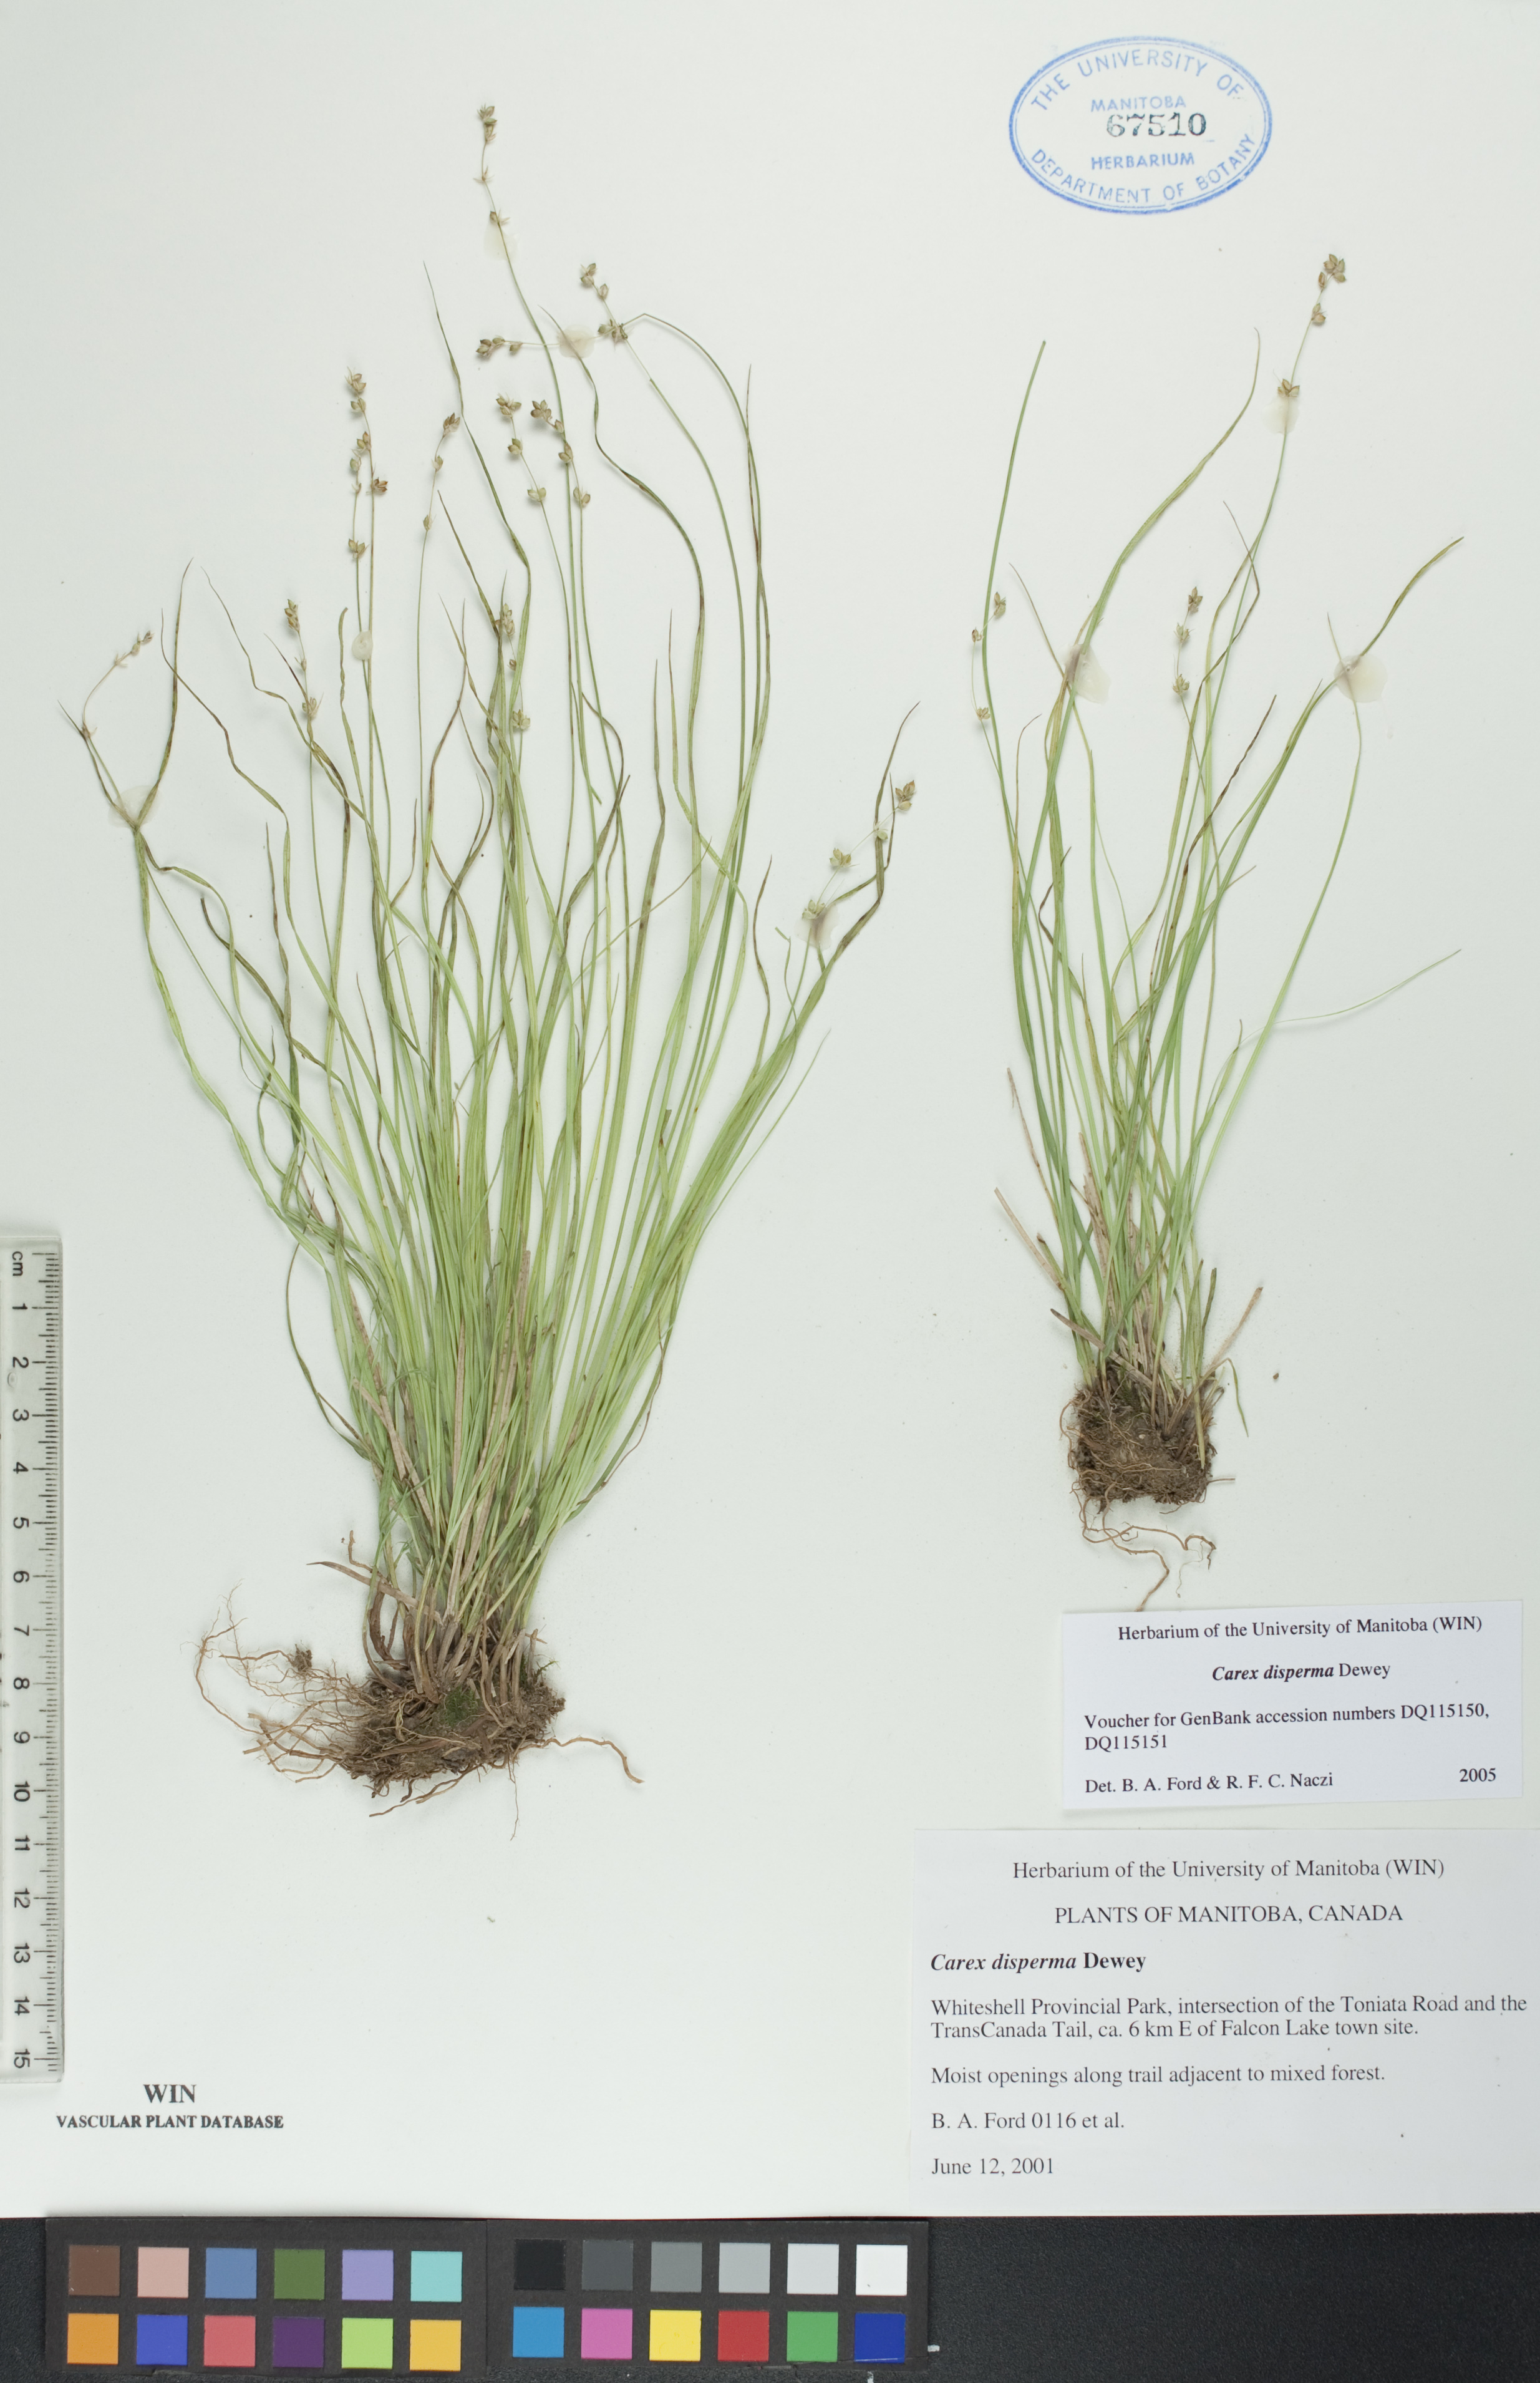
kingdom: Plantae
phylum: Tracheophyta
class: Liliopsida
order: Poales
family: Cyperaceae
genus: Carex
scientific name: Carex disperma
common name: Short-leaved sedge
